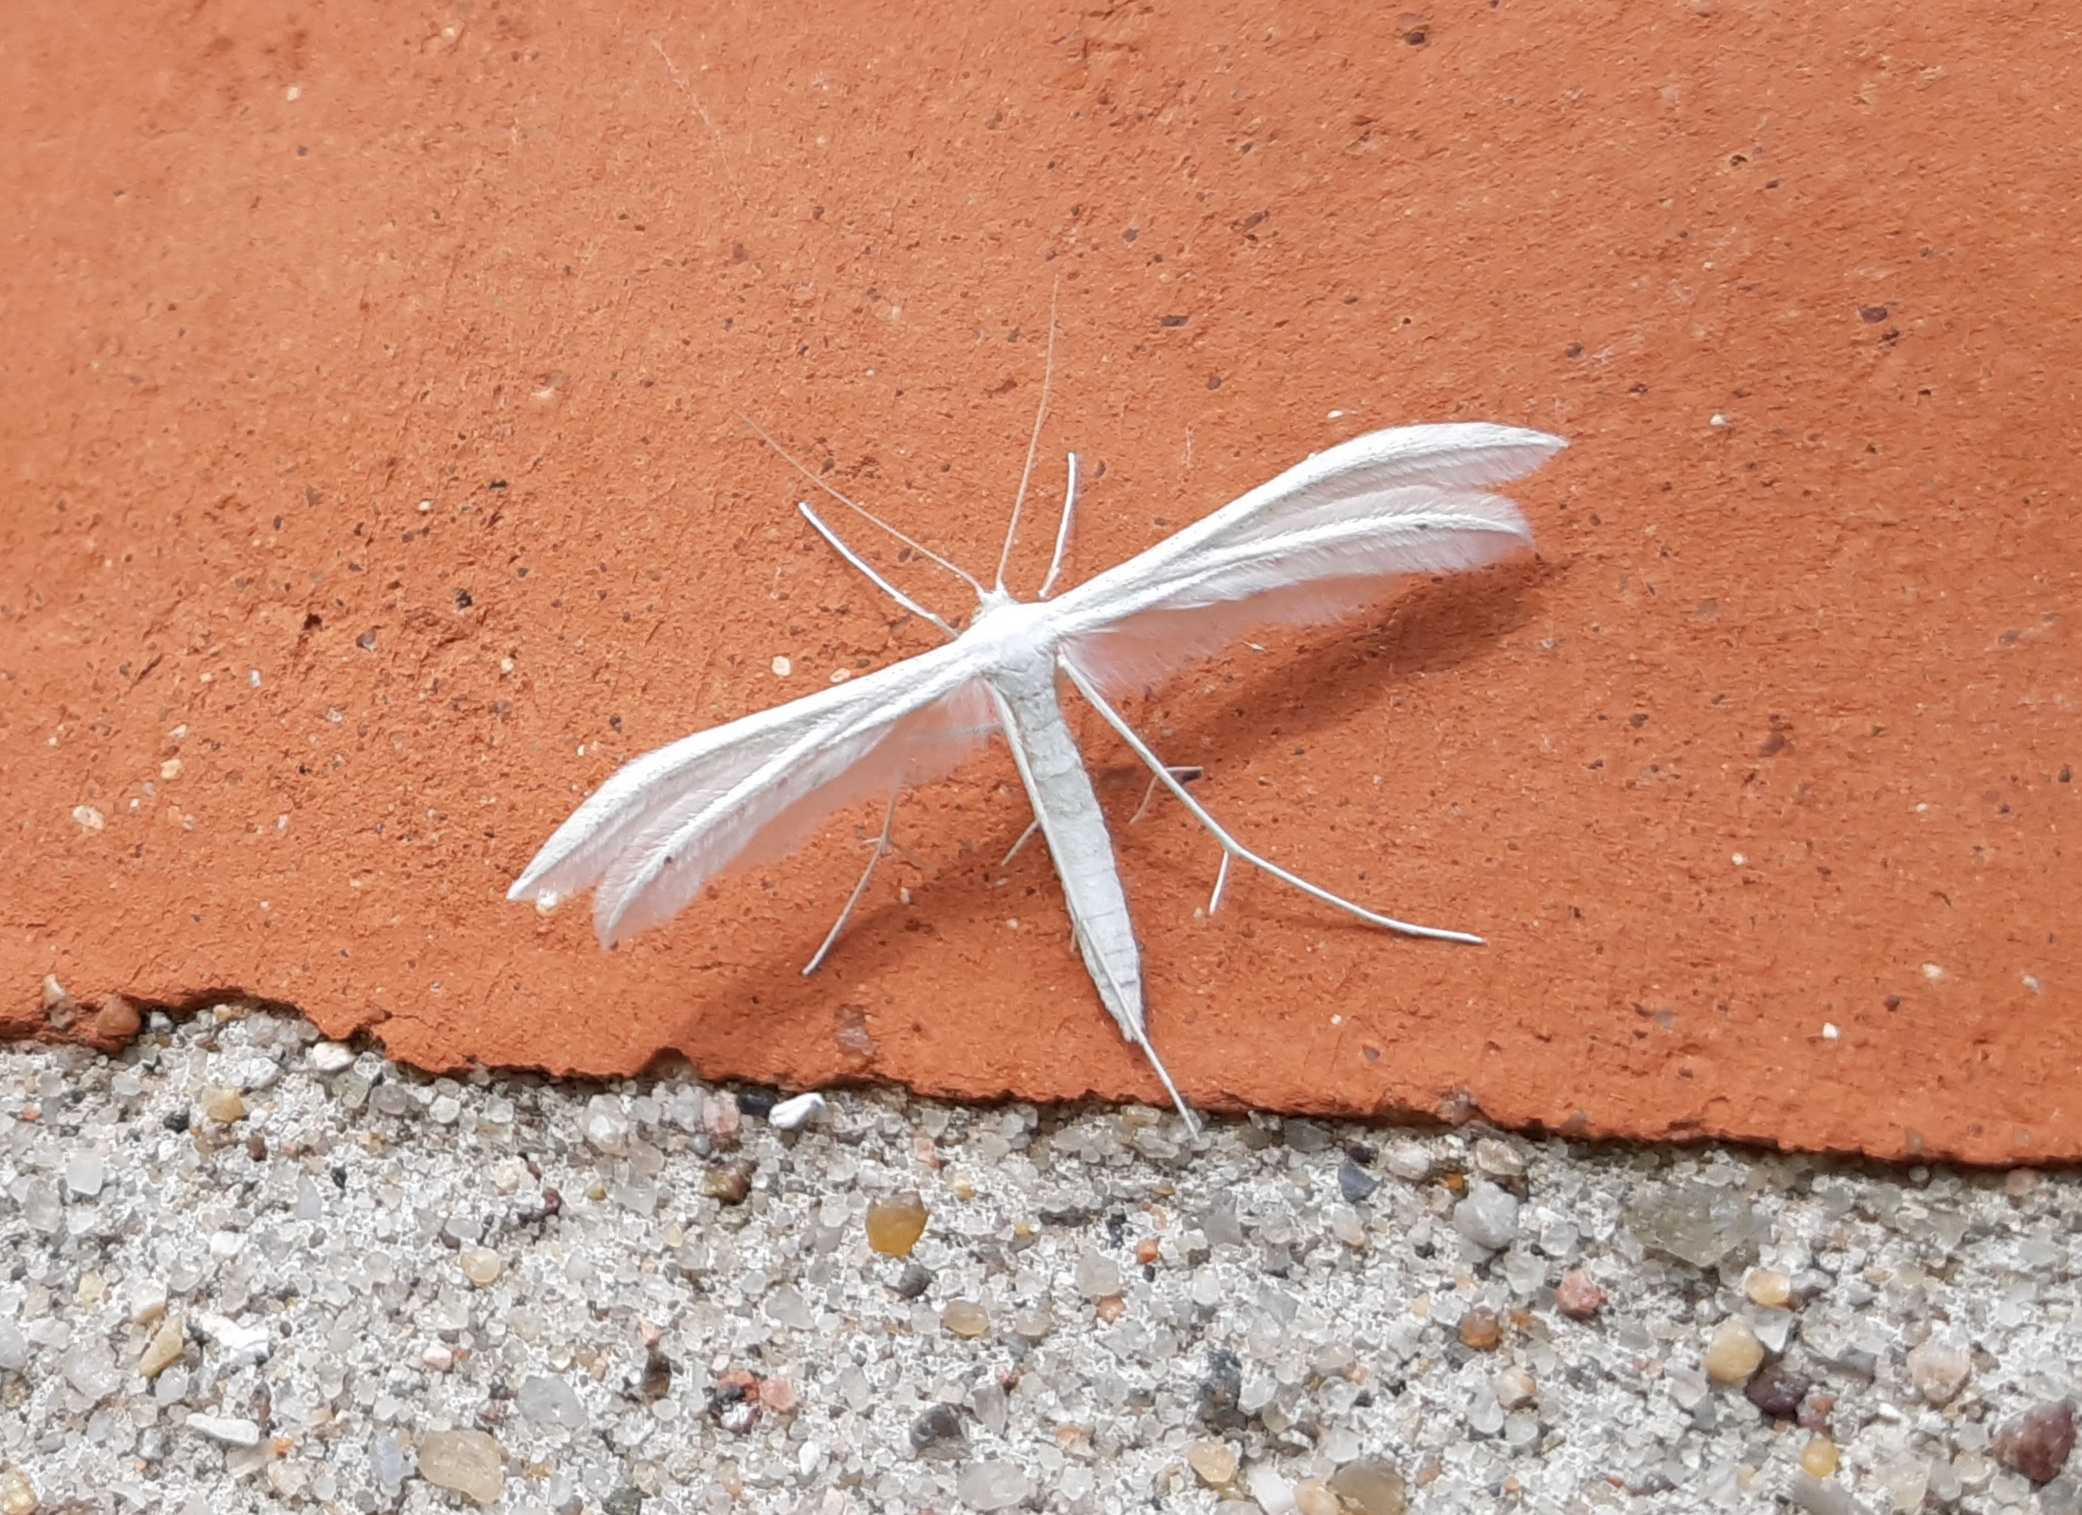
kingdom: Animalia
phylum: Arthropoda
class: Insecta
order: Lepidoptera
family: Pterophoridae
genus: Pterophorus
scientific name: Pterophorus pentadactyla
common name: Hvidt fjermøl
